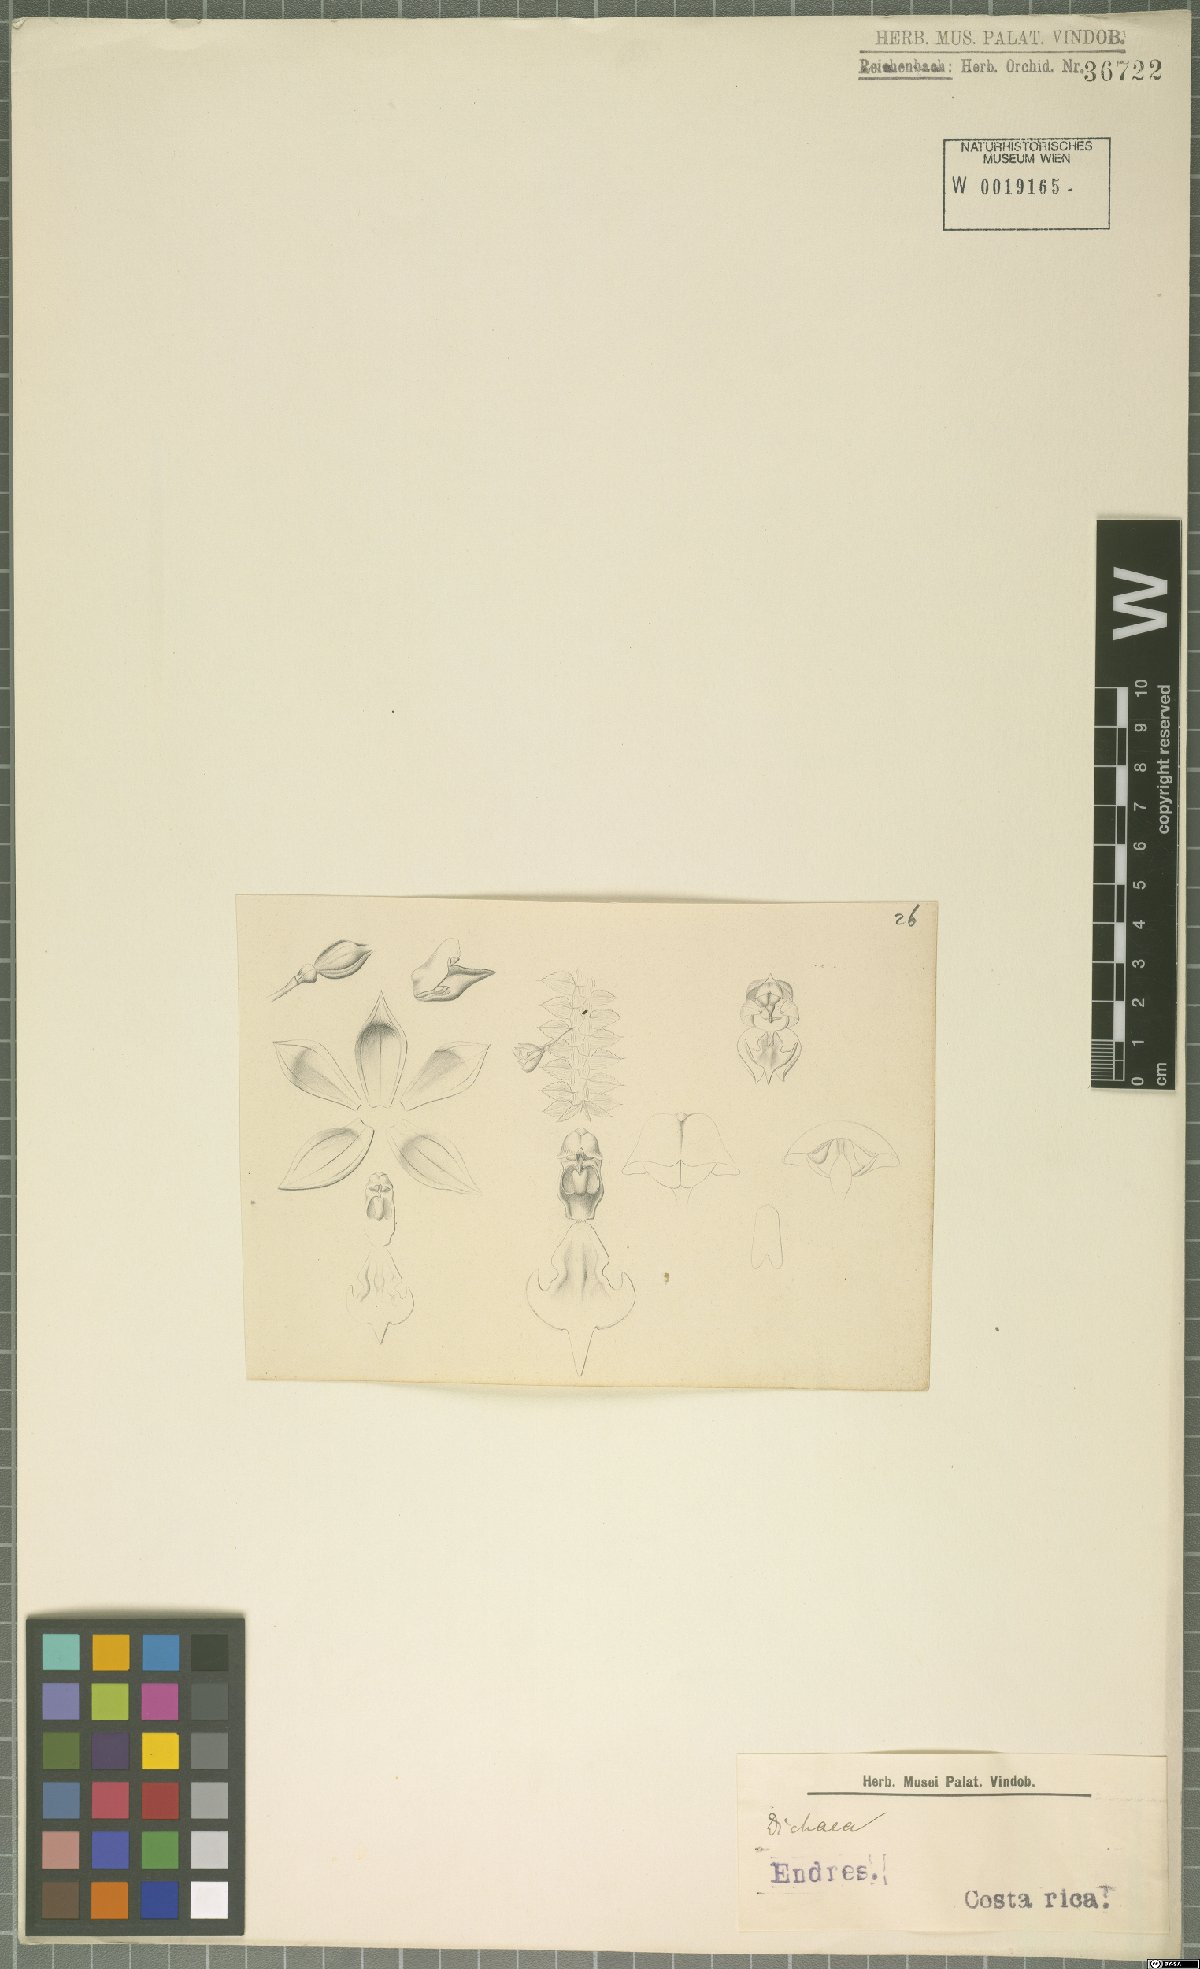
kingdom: Plantae
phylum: Tracheophyta
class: Liliopsida
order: Asparagales
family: Orchidaceae
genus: Dichaea
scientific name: Dichaea
